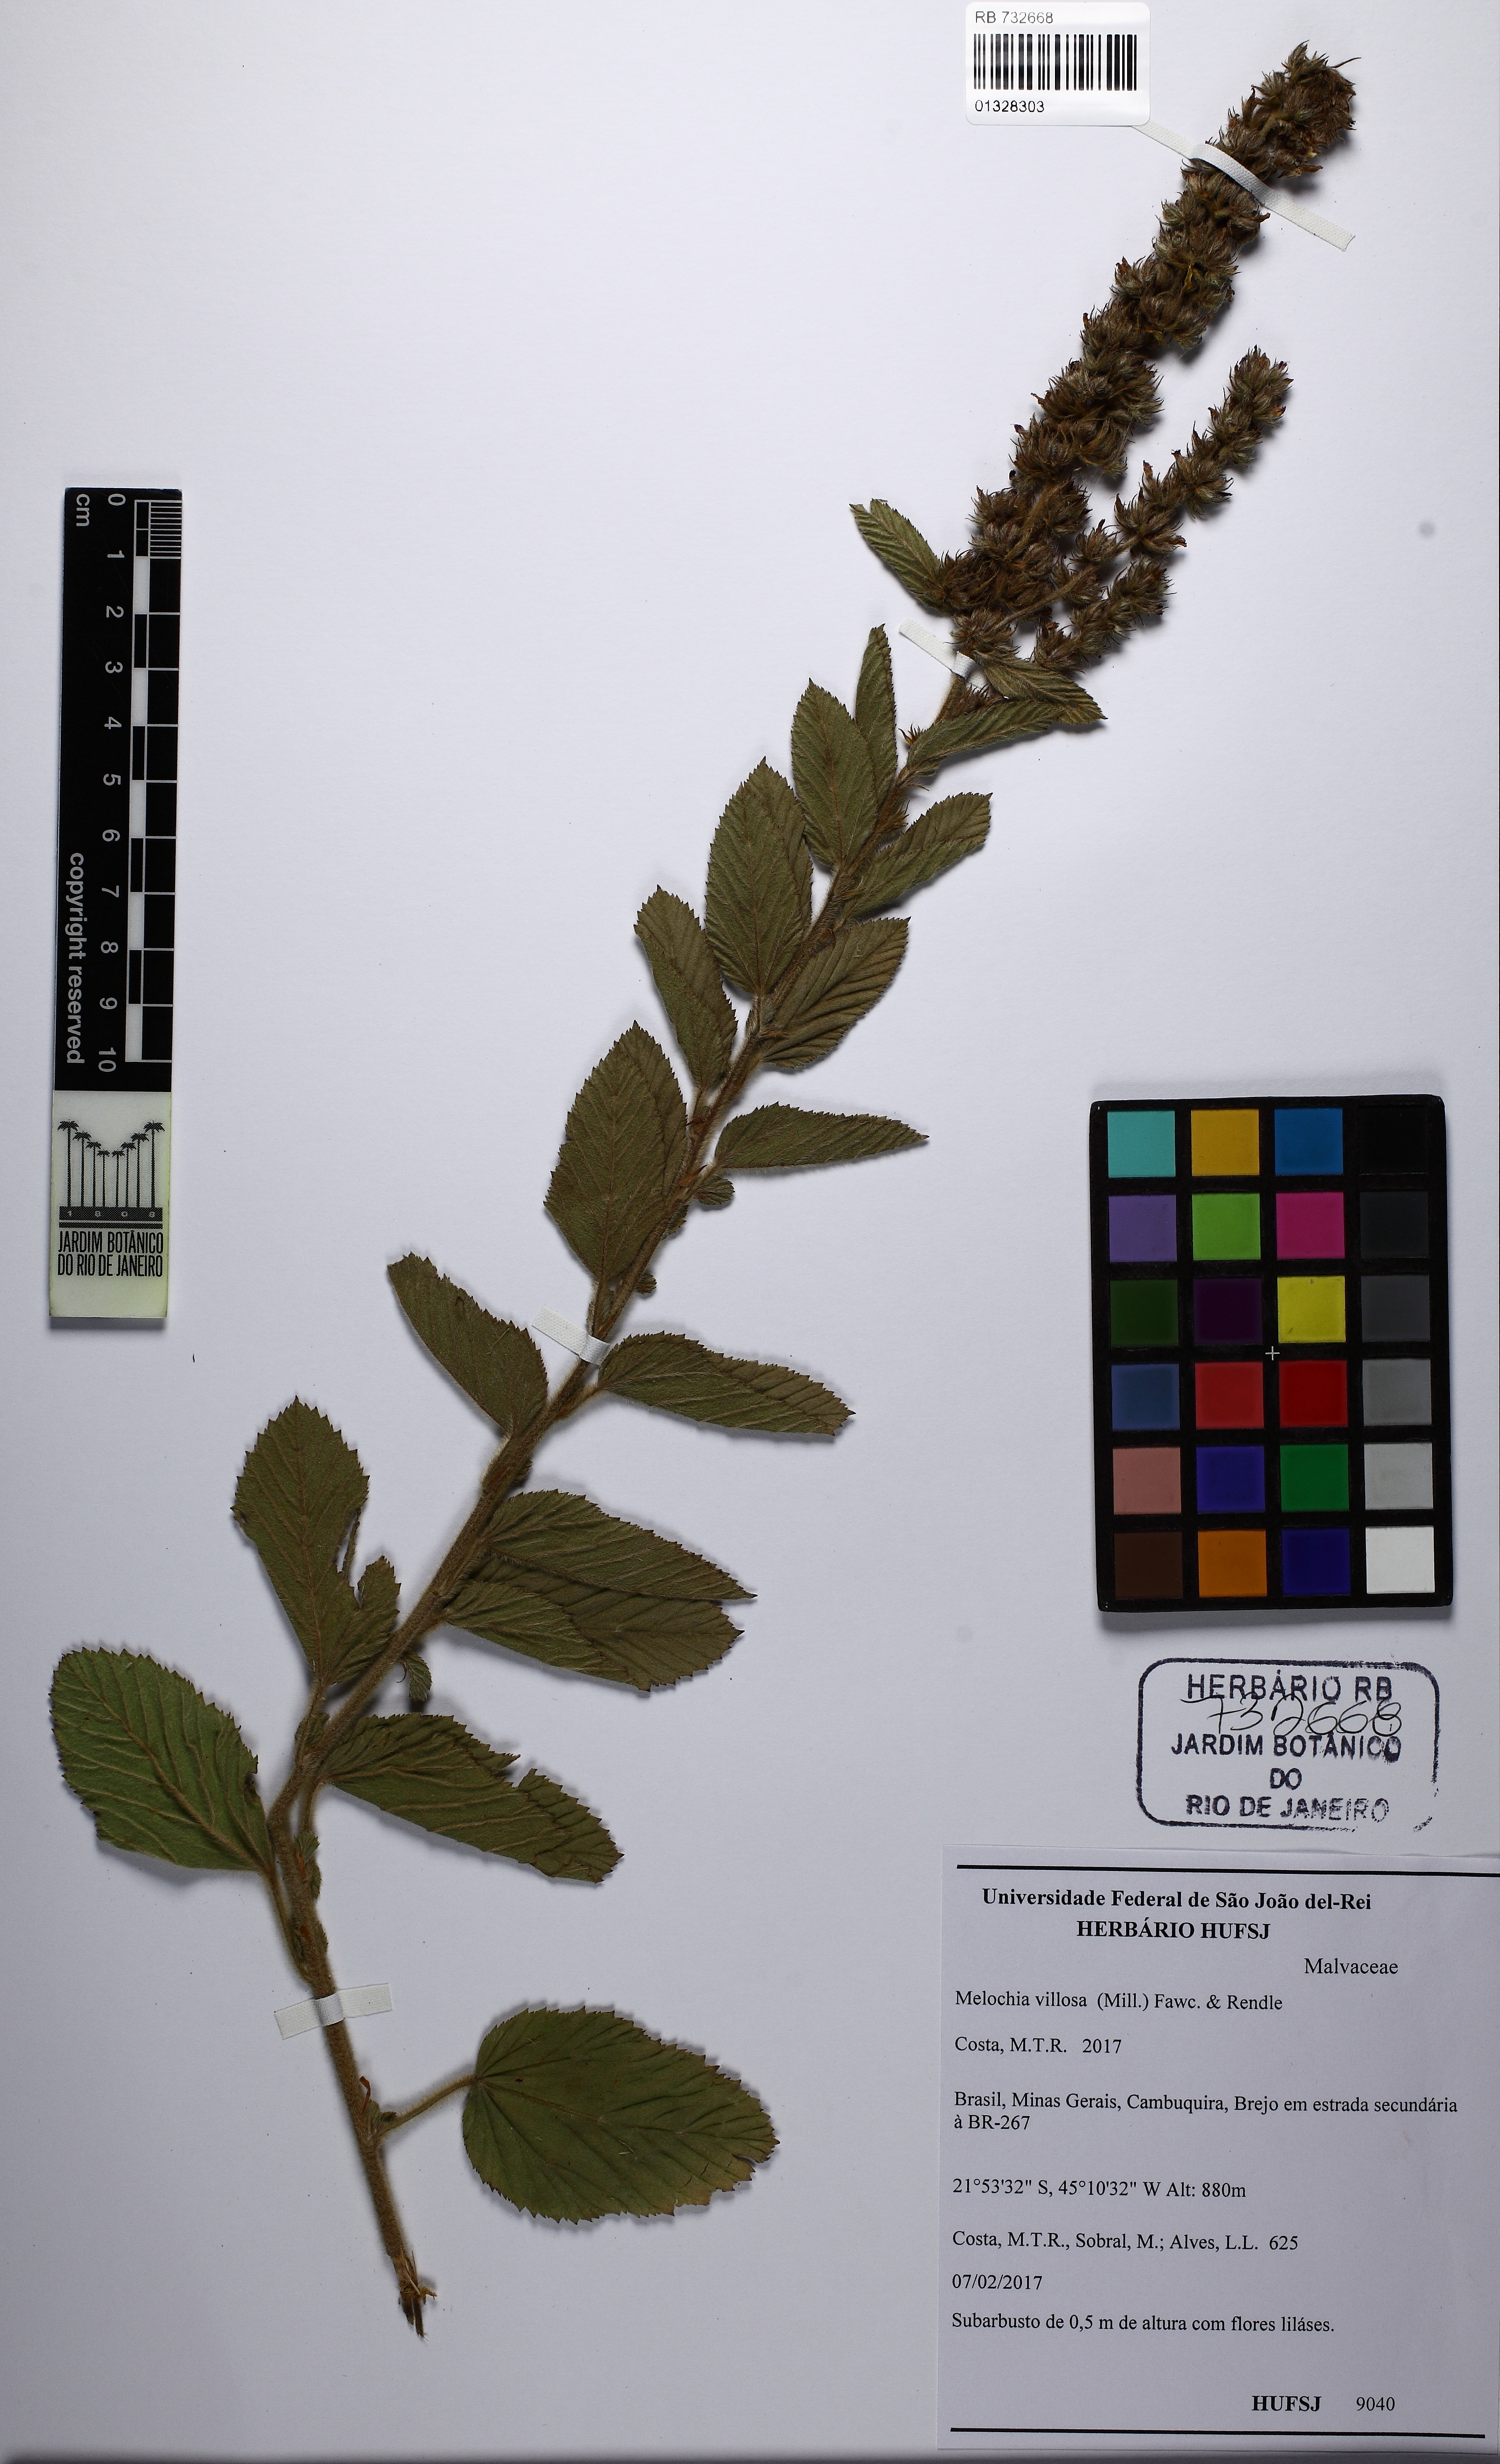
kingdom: Plantae
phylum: Tracheophyta
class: Magnoliopsida
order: Malvales
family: Malvaceae
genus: Melochia
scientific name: Melochia spicata
